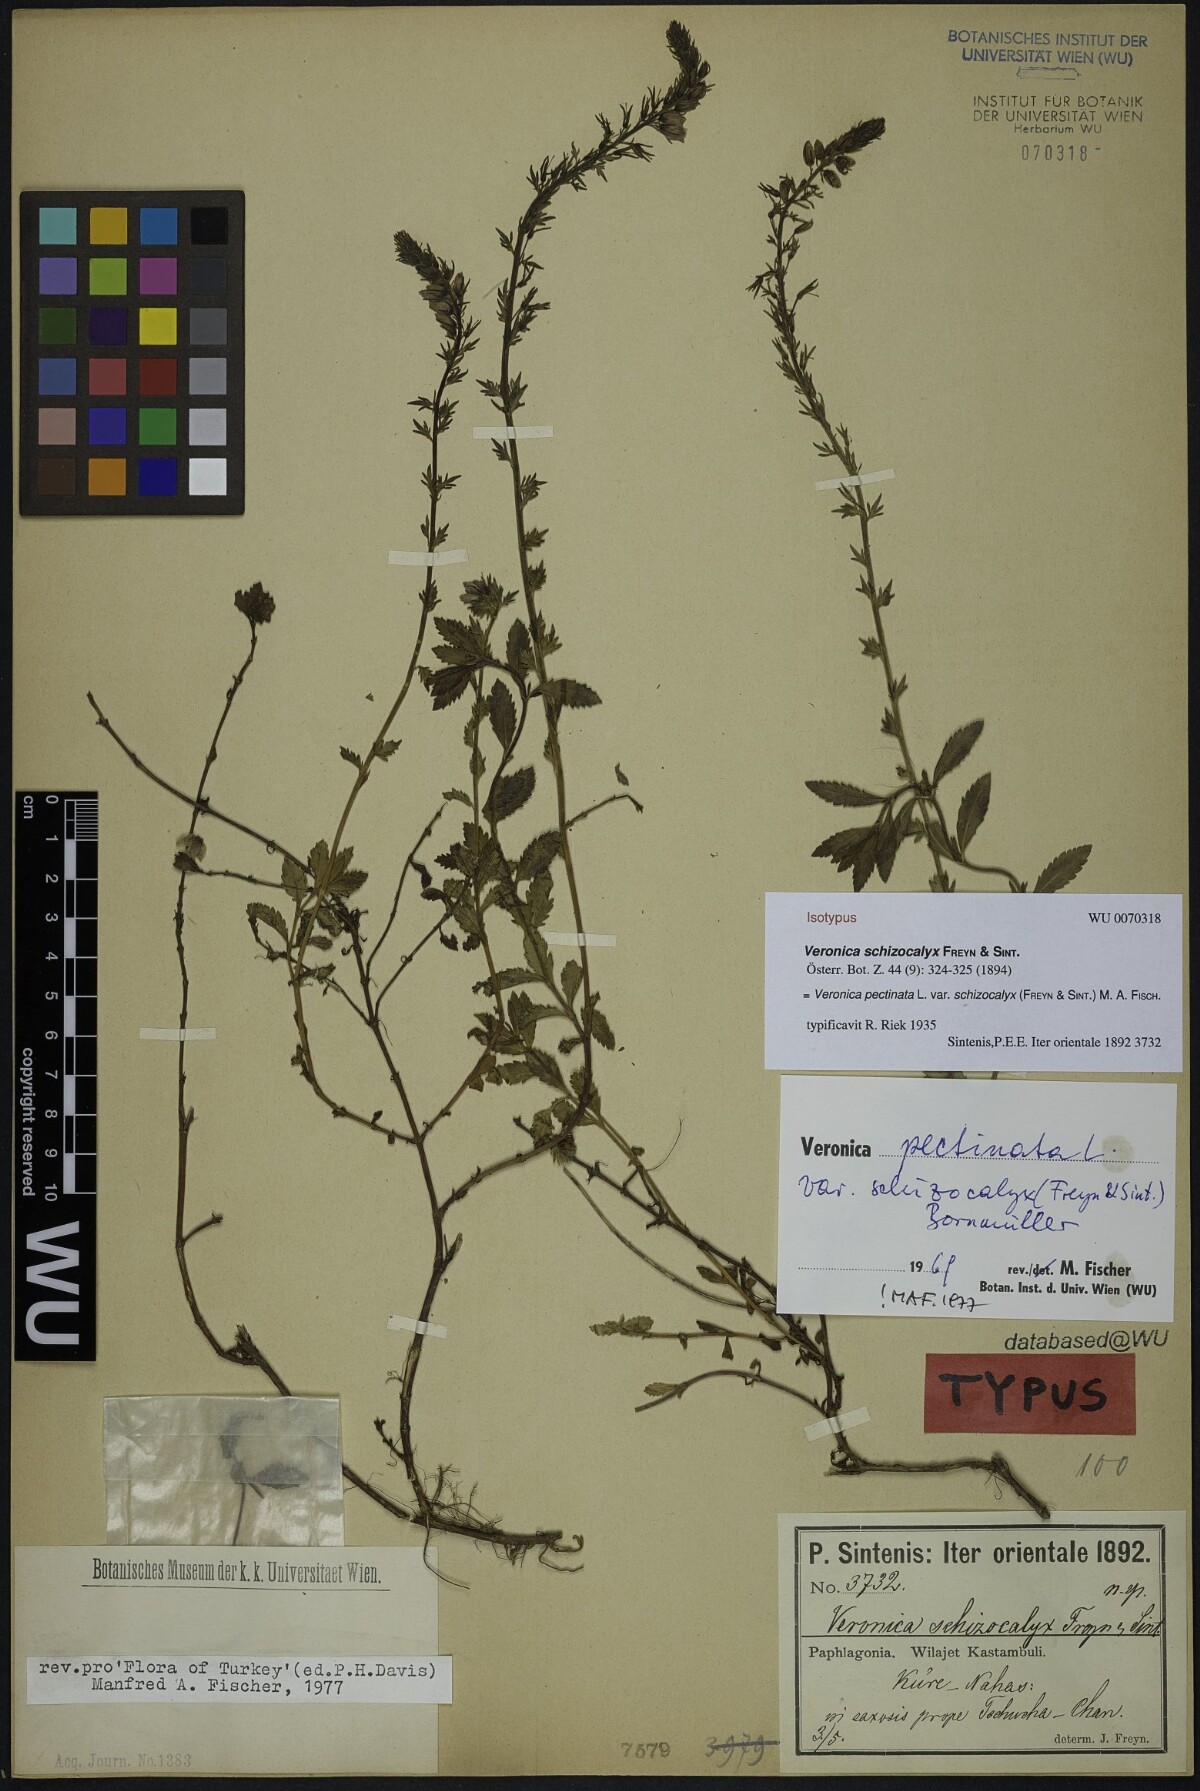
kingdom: Plantae
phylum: Tracheophyta
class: Magnoliopsida
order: Lamiales
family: Plantaginaceae
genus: Veronica
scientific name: Veronica pectinata
